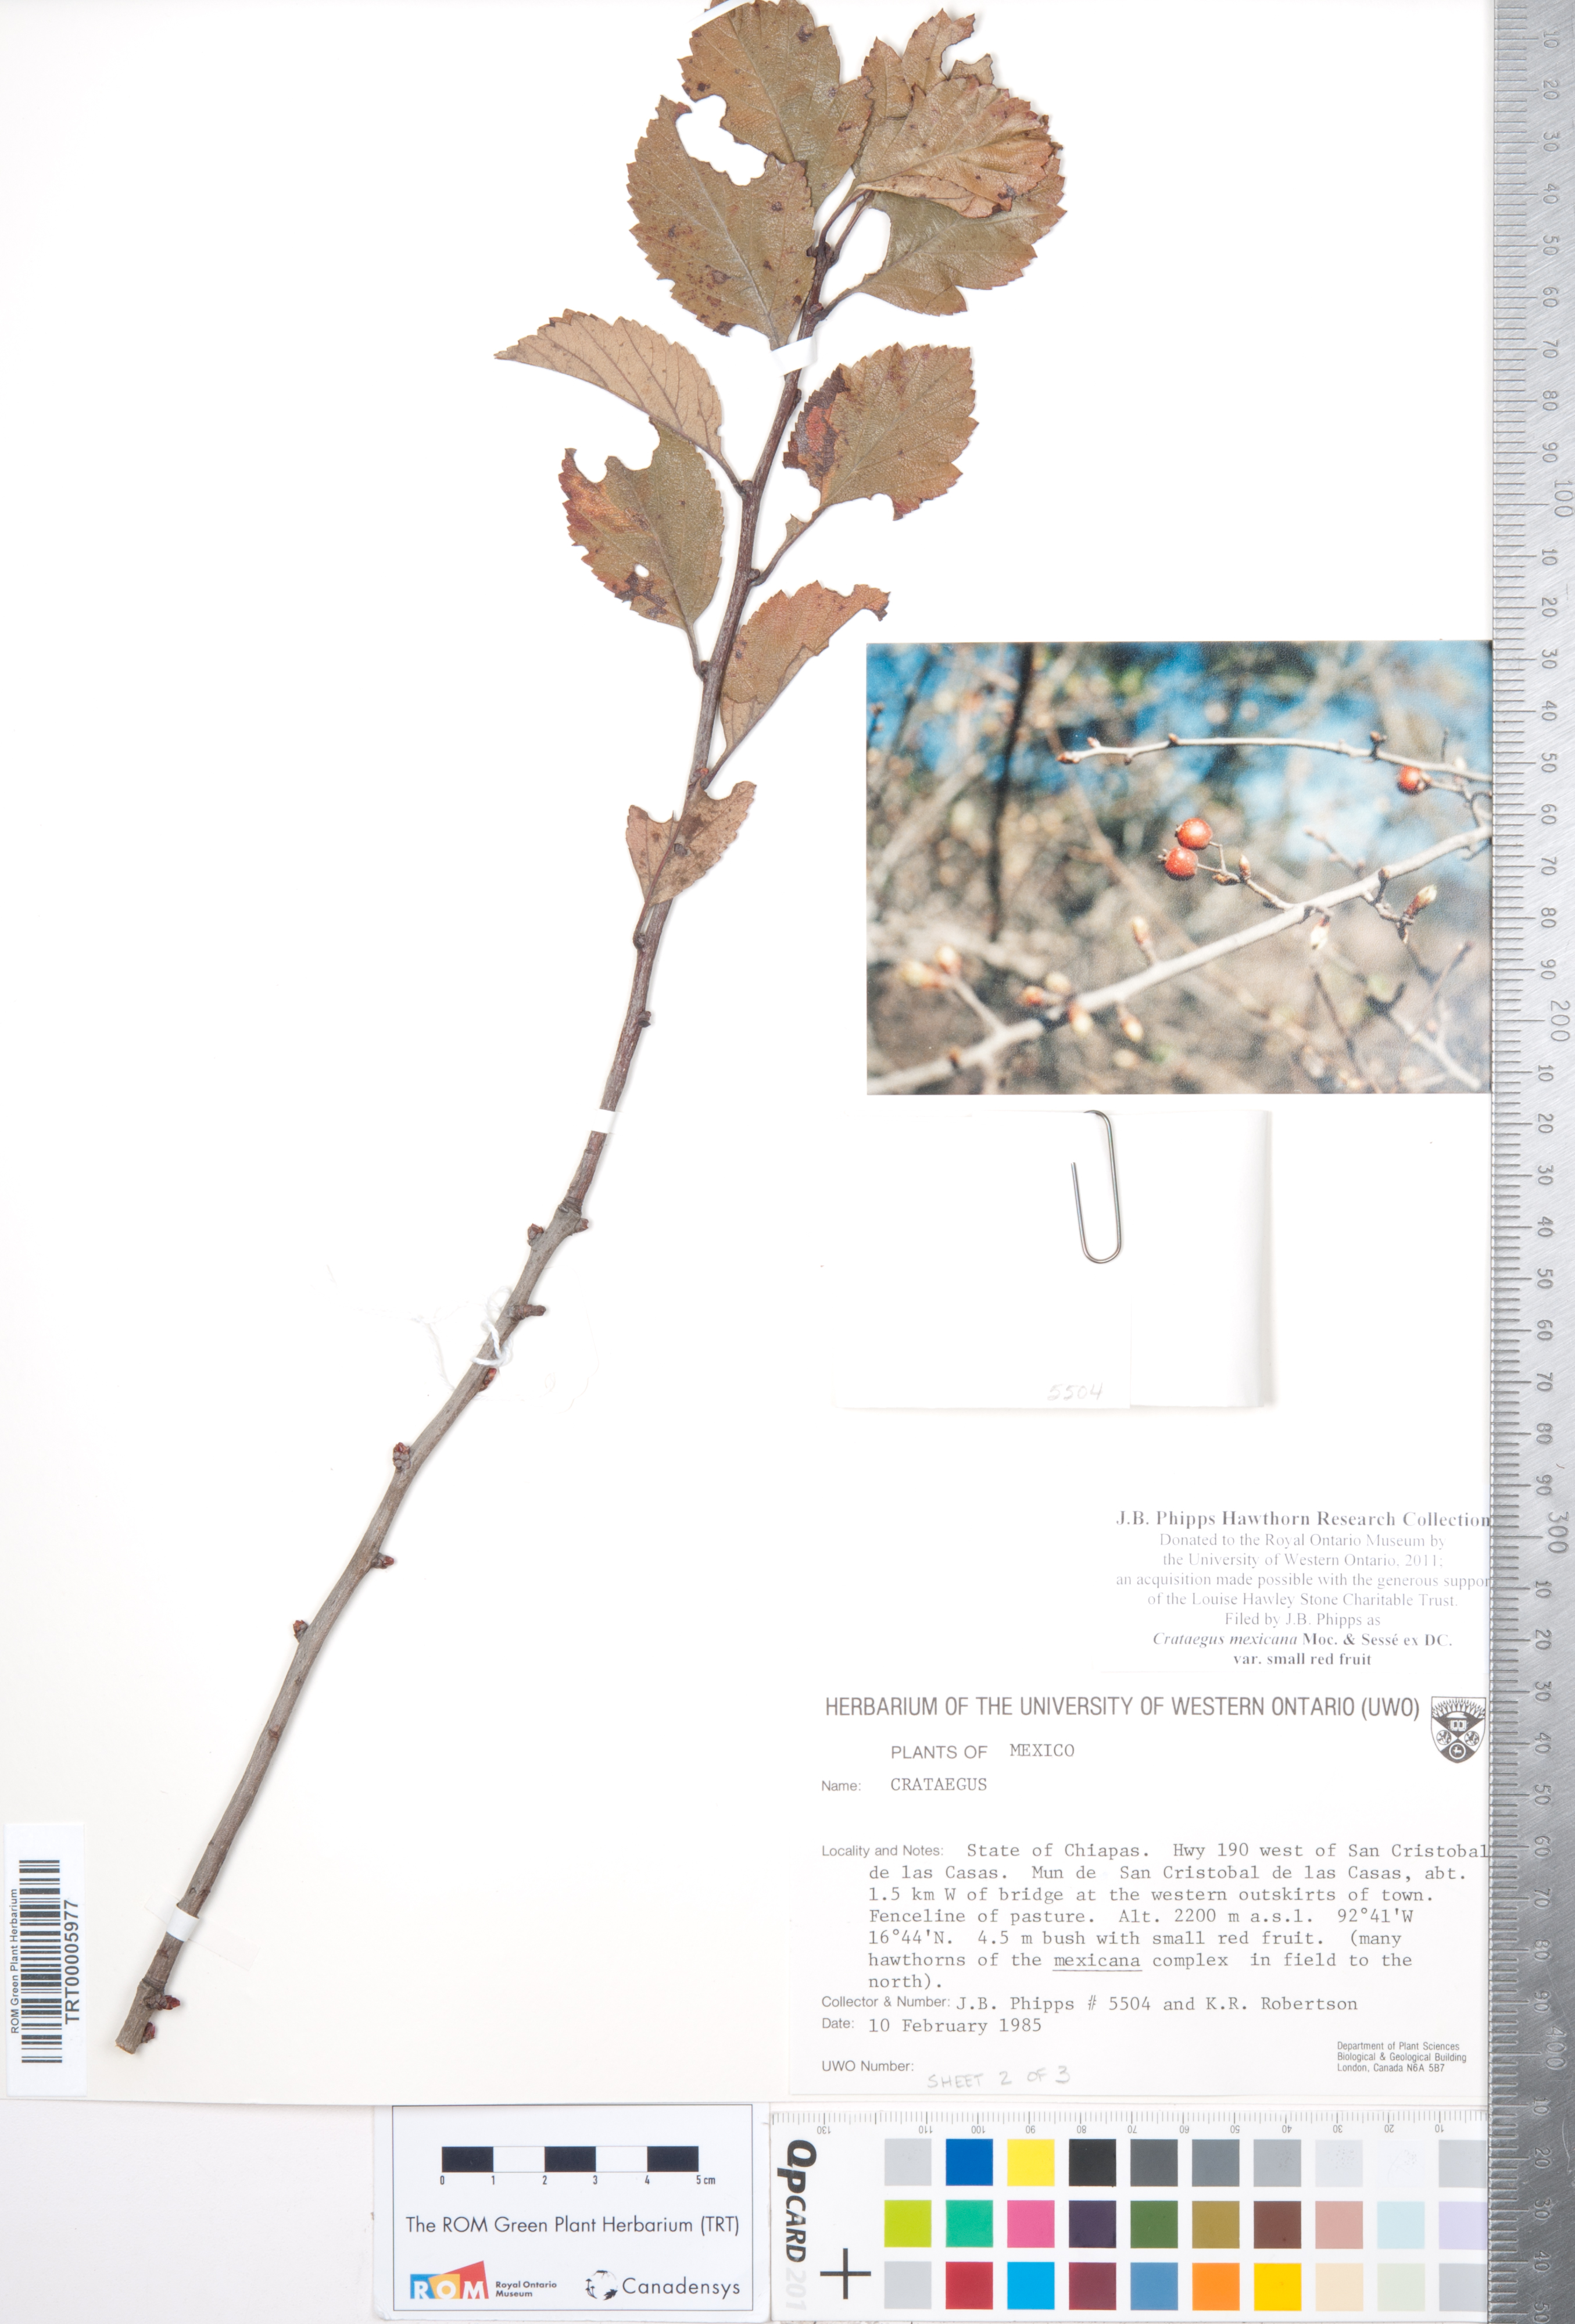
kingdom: Plantae
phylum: Tracheophyta
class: Magnoliopsida
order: Rosales
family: Rosaceae
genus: Crataegus
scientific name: Crataegus mexicana
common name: Mexican hawthorn
